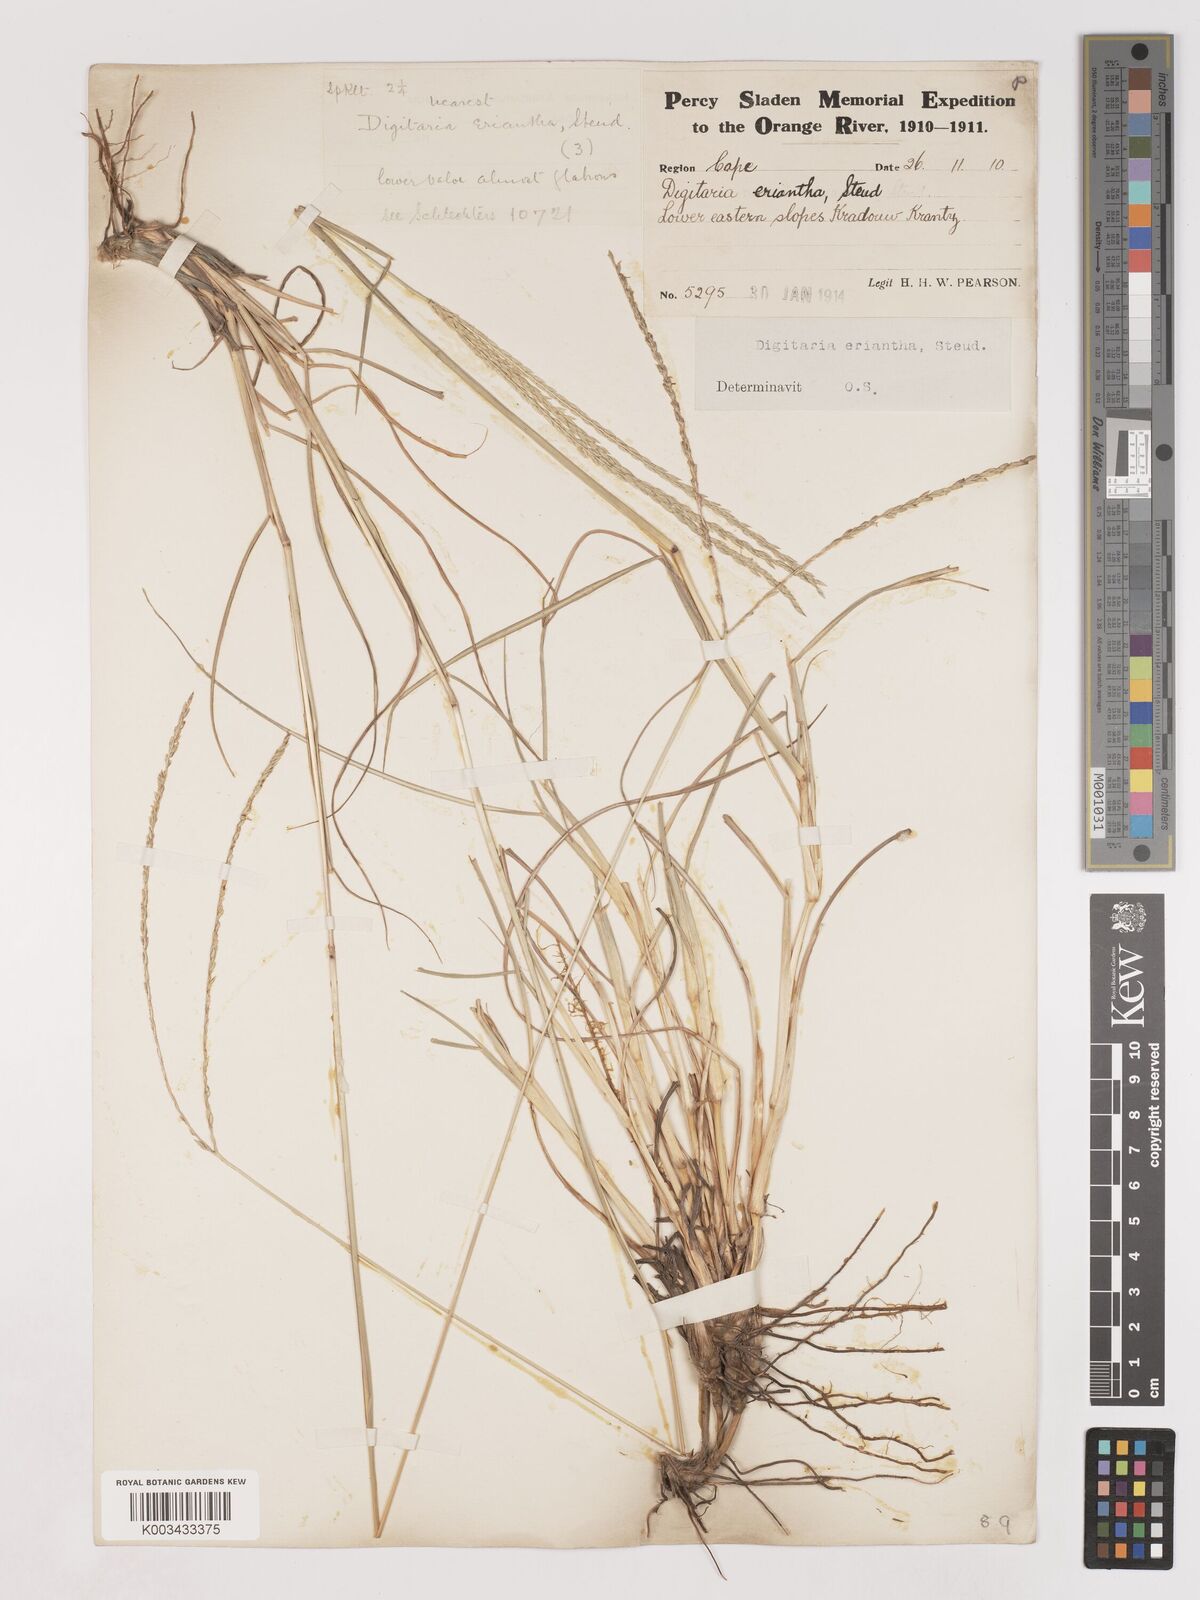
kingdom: Plantae
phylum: Tracheophyta
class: Liliopsida
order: Poales
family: Poaceae
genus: Digitaria
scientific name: Digitaria eriantha
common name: Digitgrass
